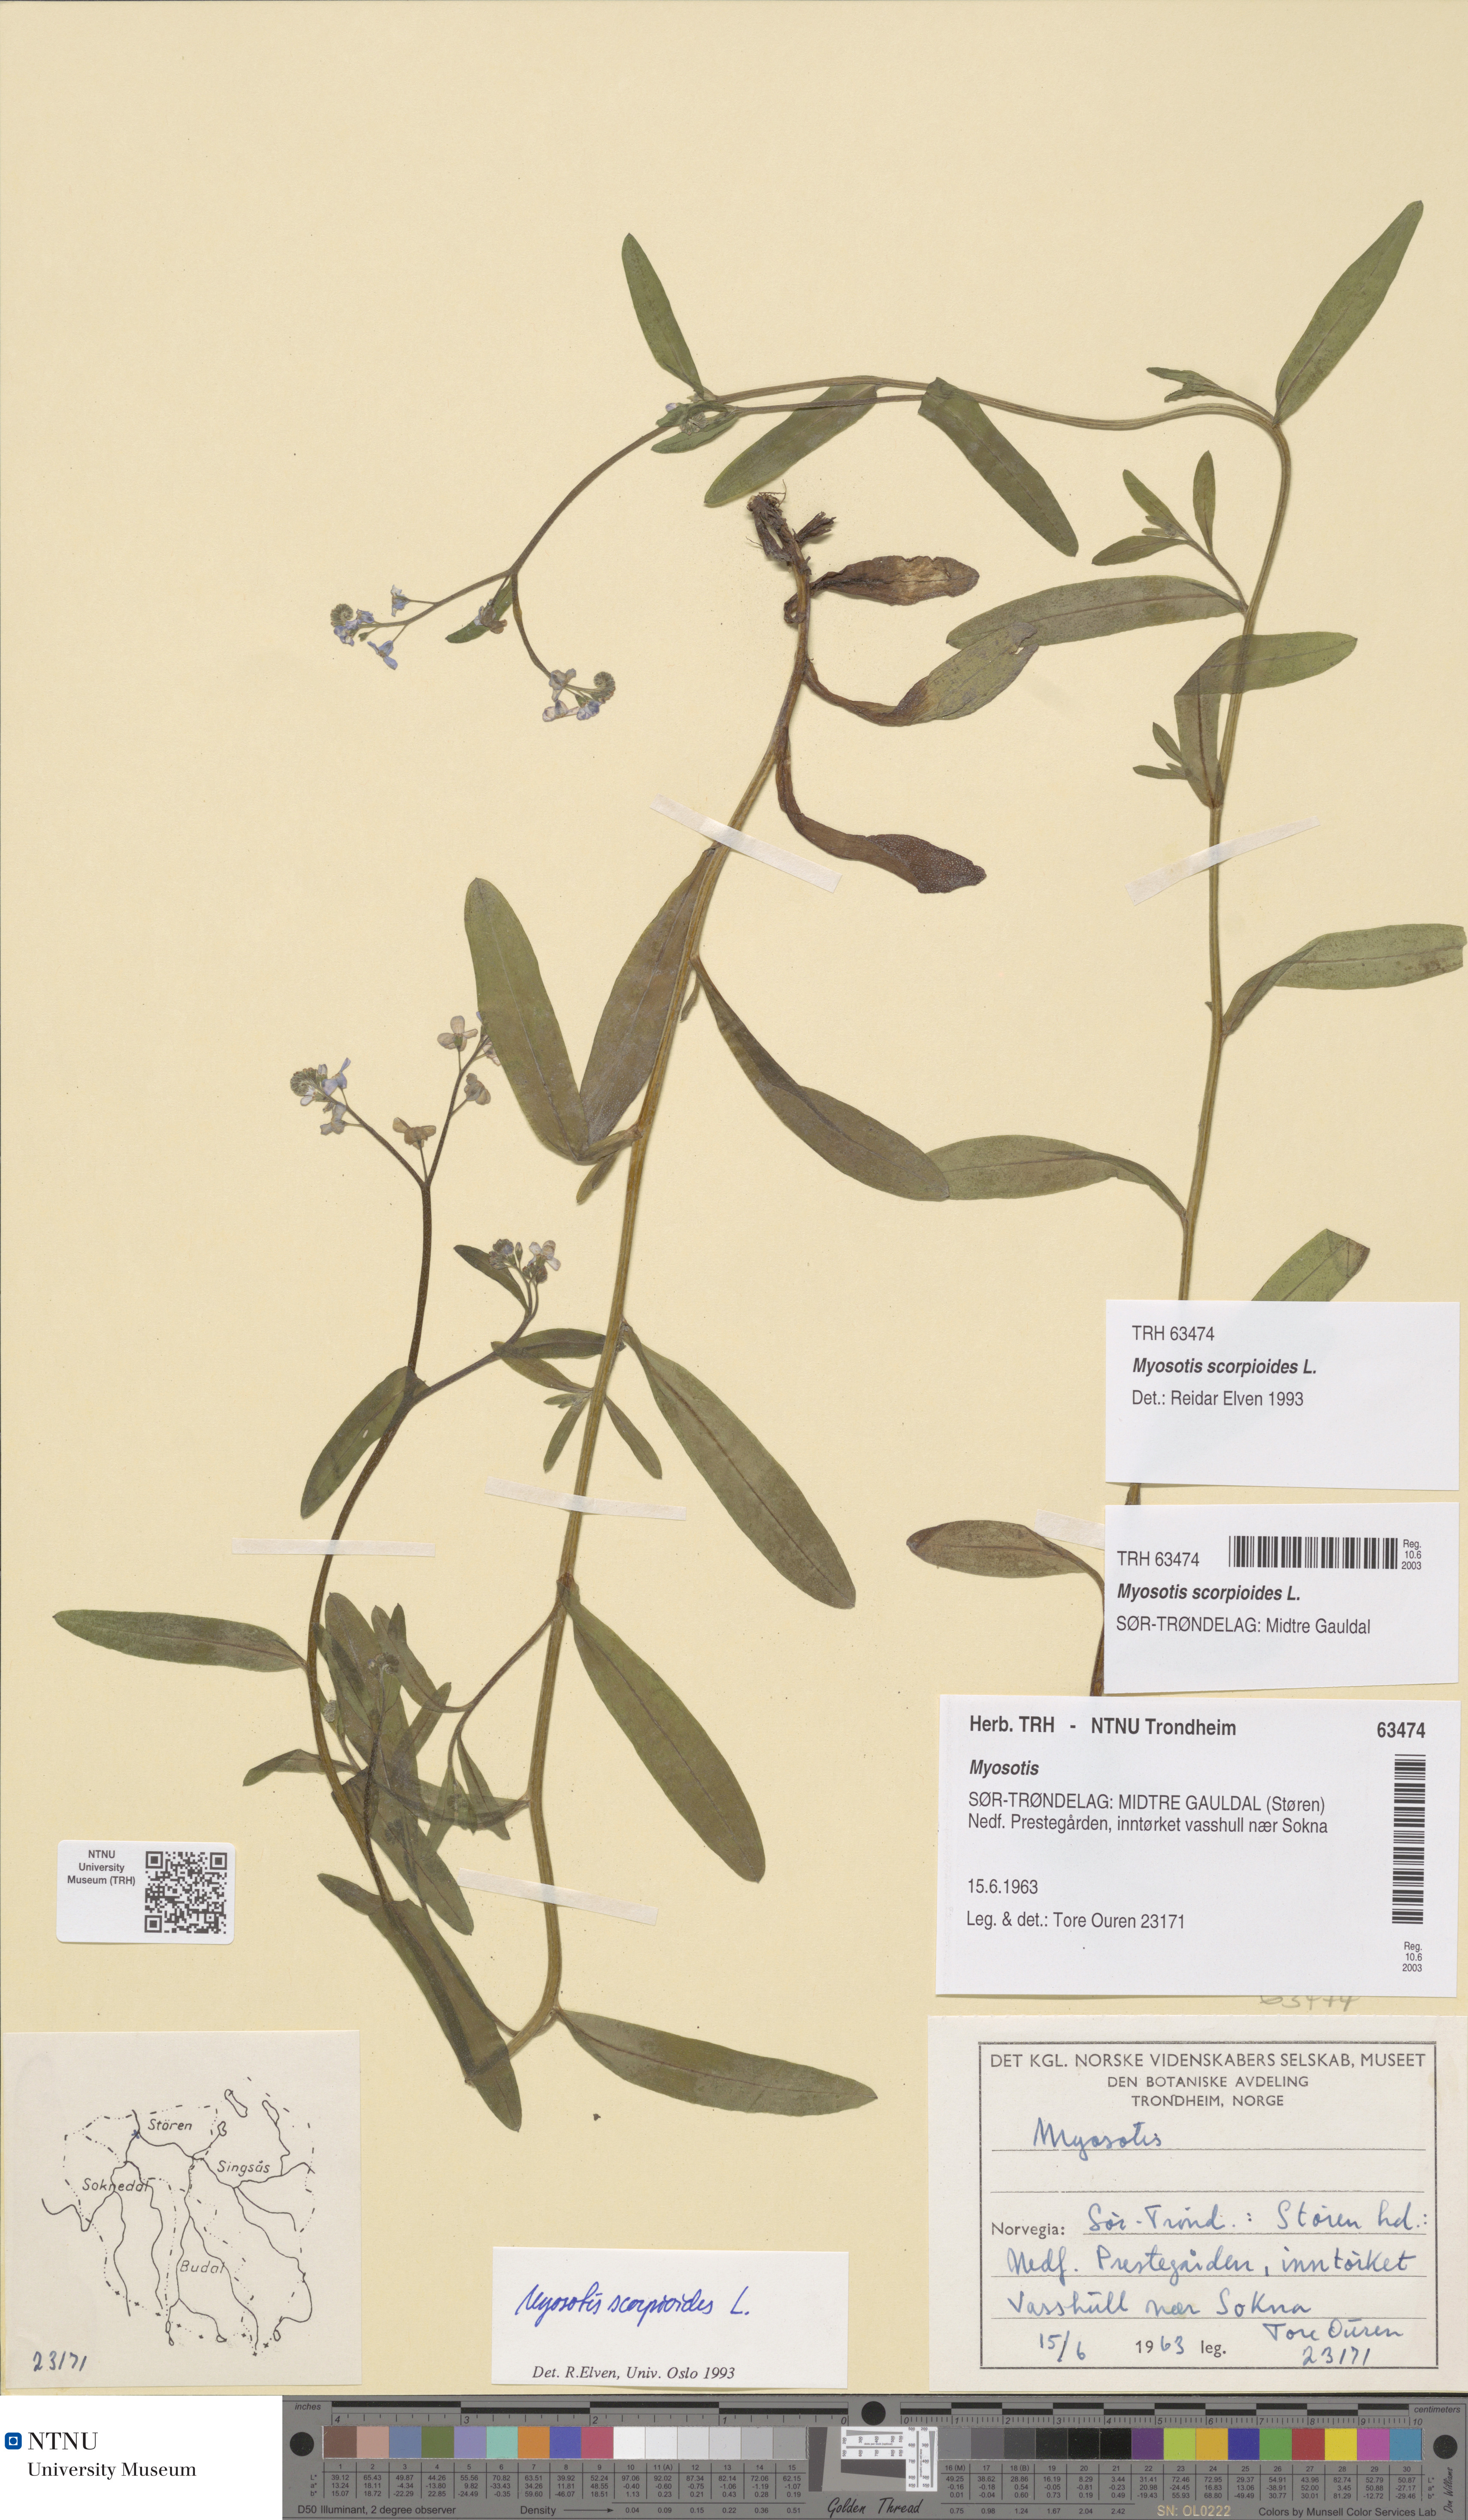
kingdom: Plantae
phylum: Tracheophyta
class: Magnoliopsida
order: Boraginales
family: Boraginaceae
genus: Myosotis
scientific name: Myosotis scorpioides
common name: Water forget-me-not
